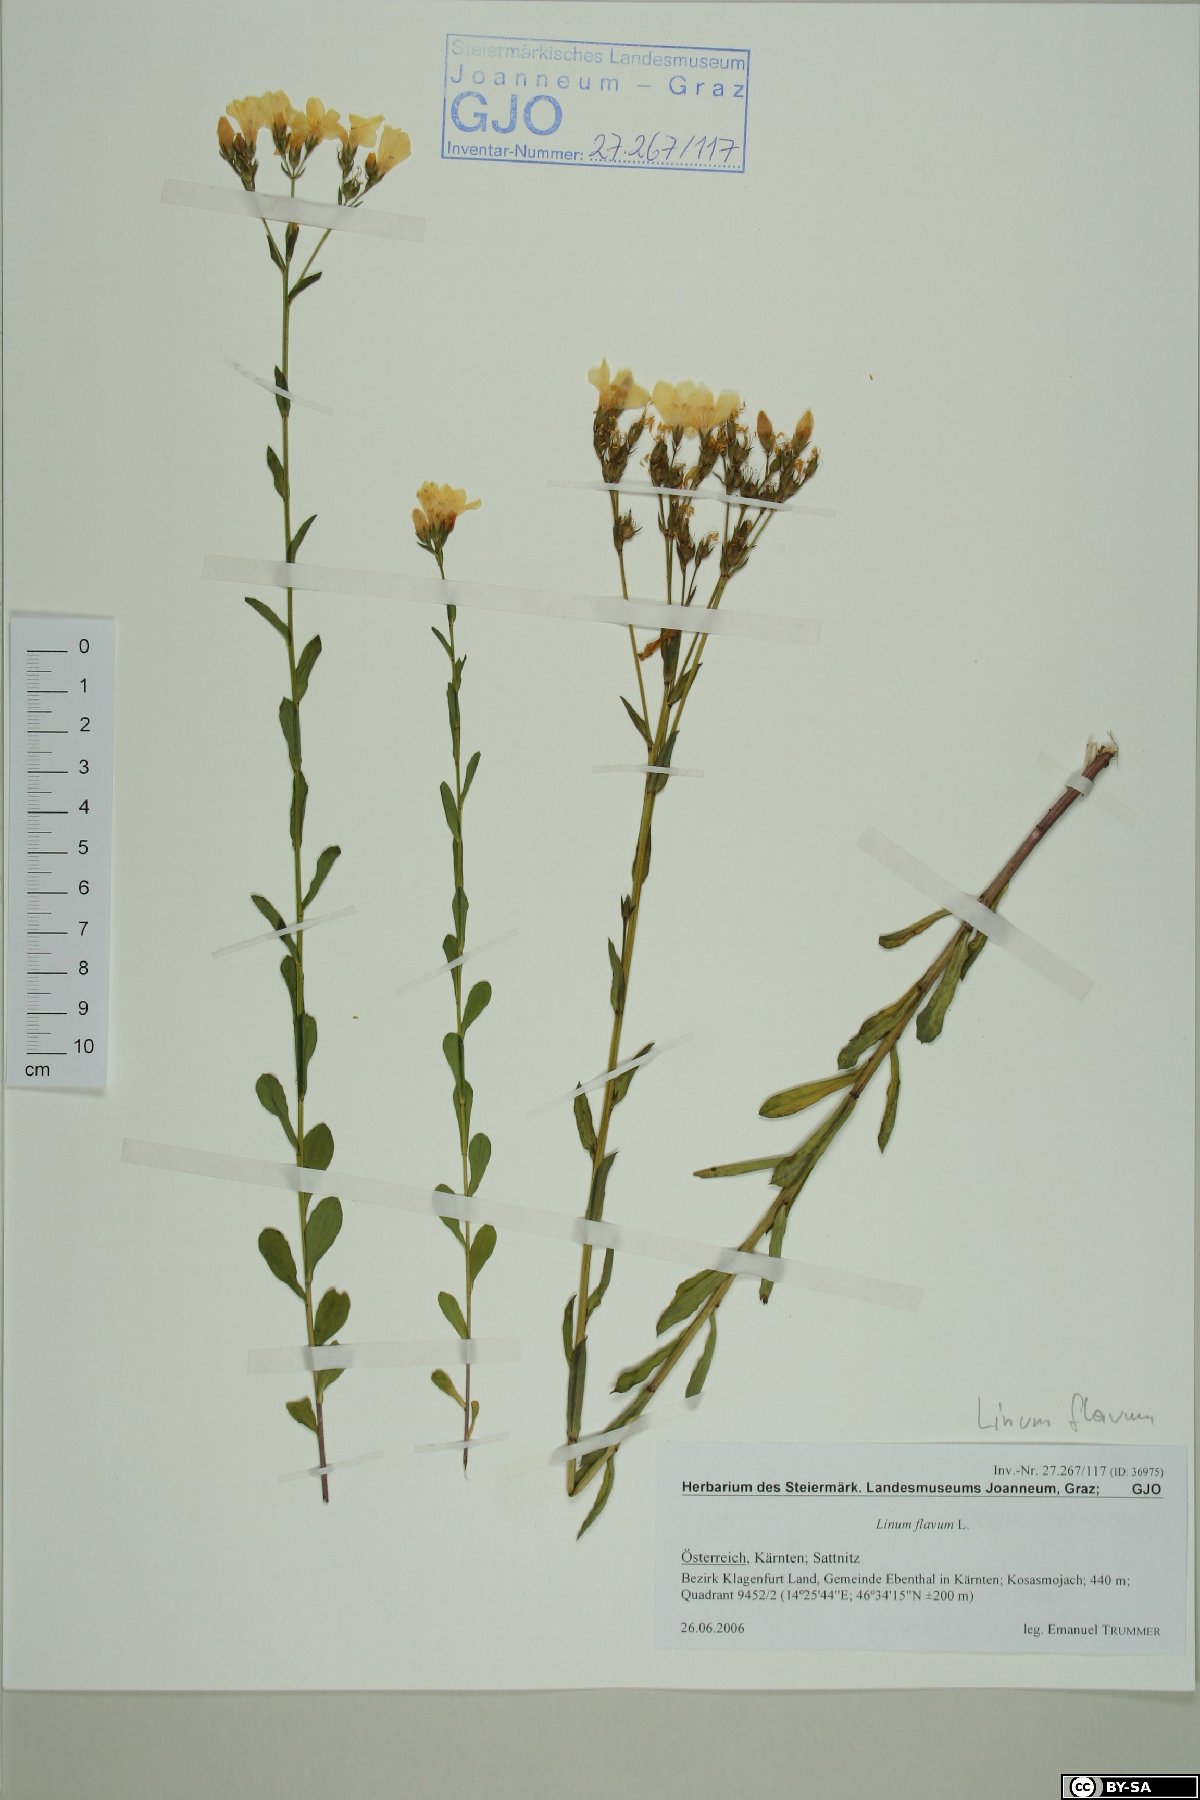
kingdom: Plantae
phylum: Tracheophyta
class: Magnoliopsida
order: Malpighiales
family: Linaceae
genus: Linum
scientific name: Linum flavum
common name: Yellow flax
